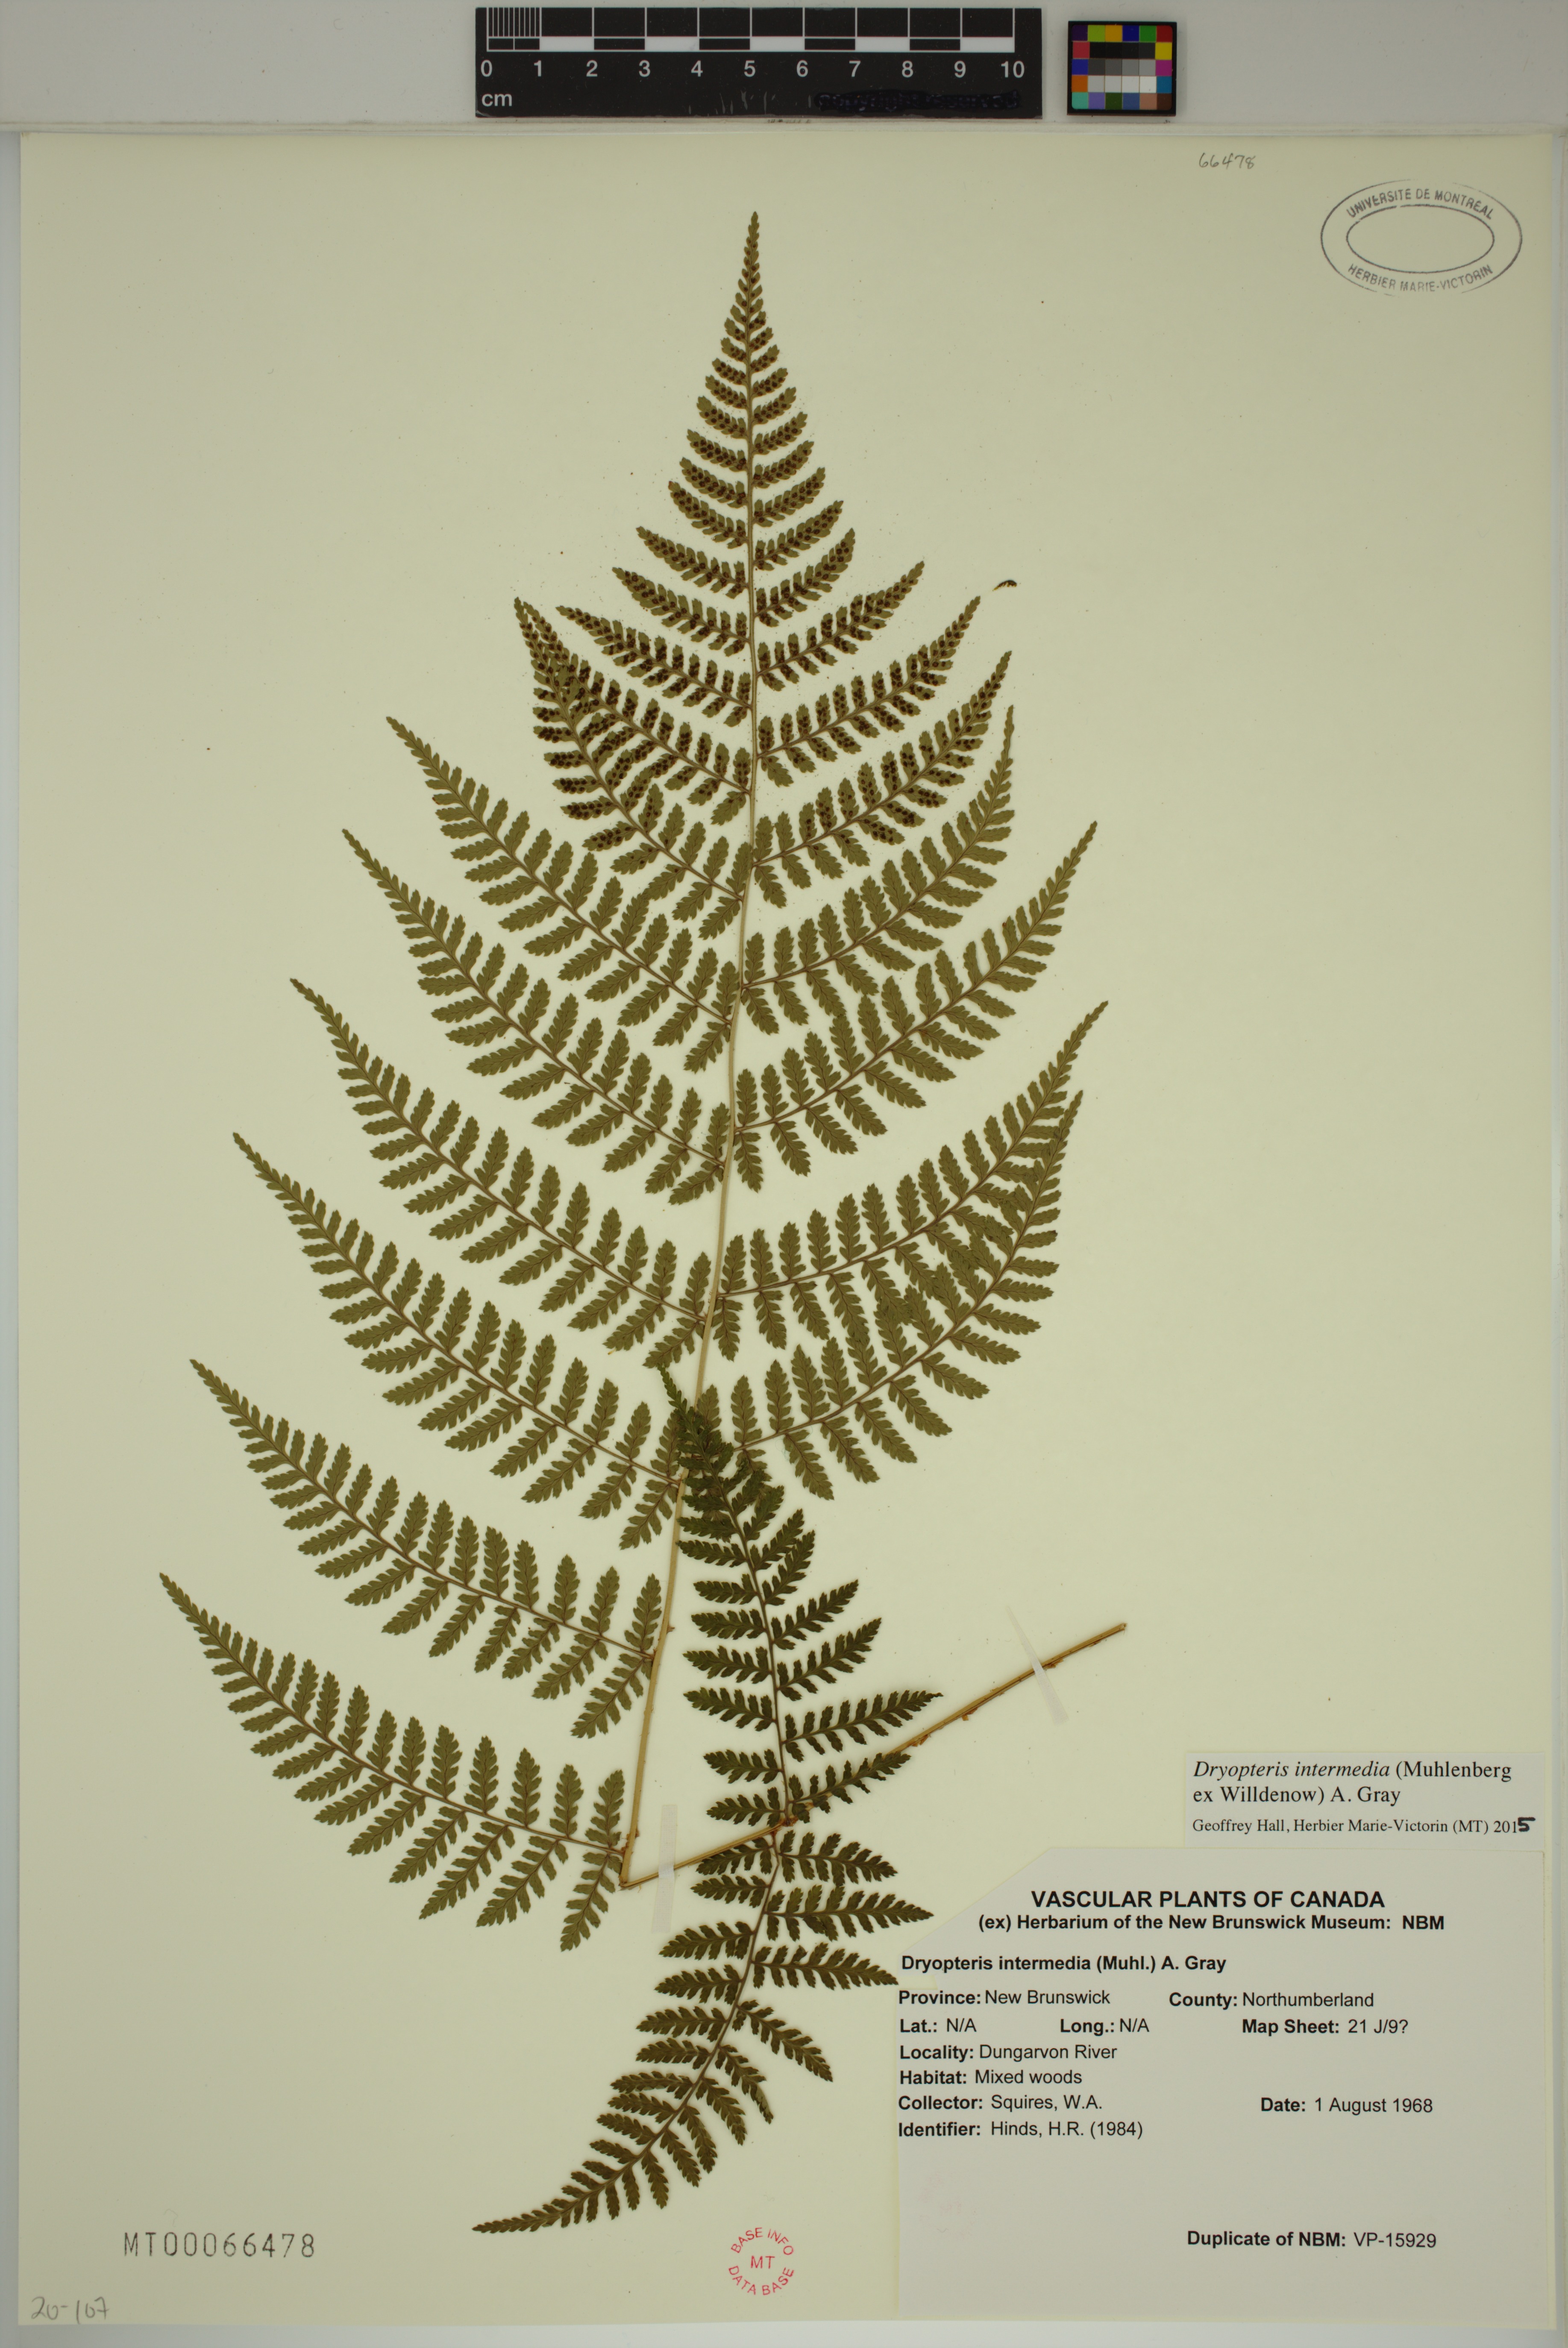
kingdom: Plantae
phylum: Tracheophyta
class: Polypodiopsida
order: Polypodiales
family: Dryopteridaceae
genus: Dryopteris
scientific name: Dryopteris intermedia
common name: Evergreen wood fern
